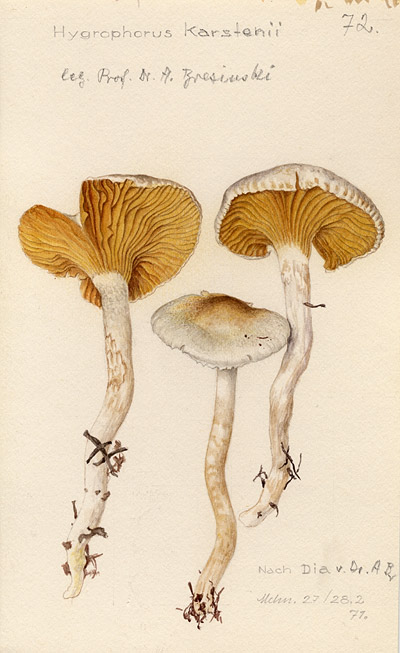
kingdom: Fungi
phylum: Basidiomycota
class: Agaricomycetes
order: Agaricales
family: Hygrophoraceae
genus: Cuphophyllus
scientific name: Cuphophyllus pratensis
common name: Meadow waxcap
